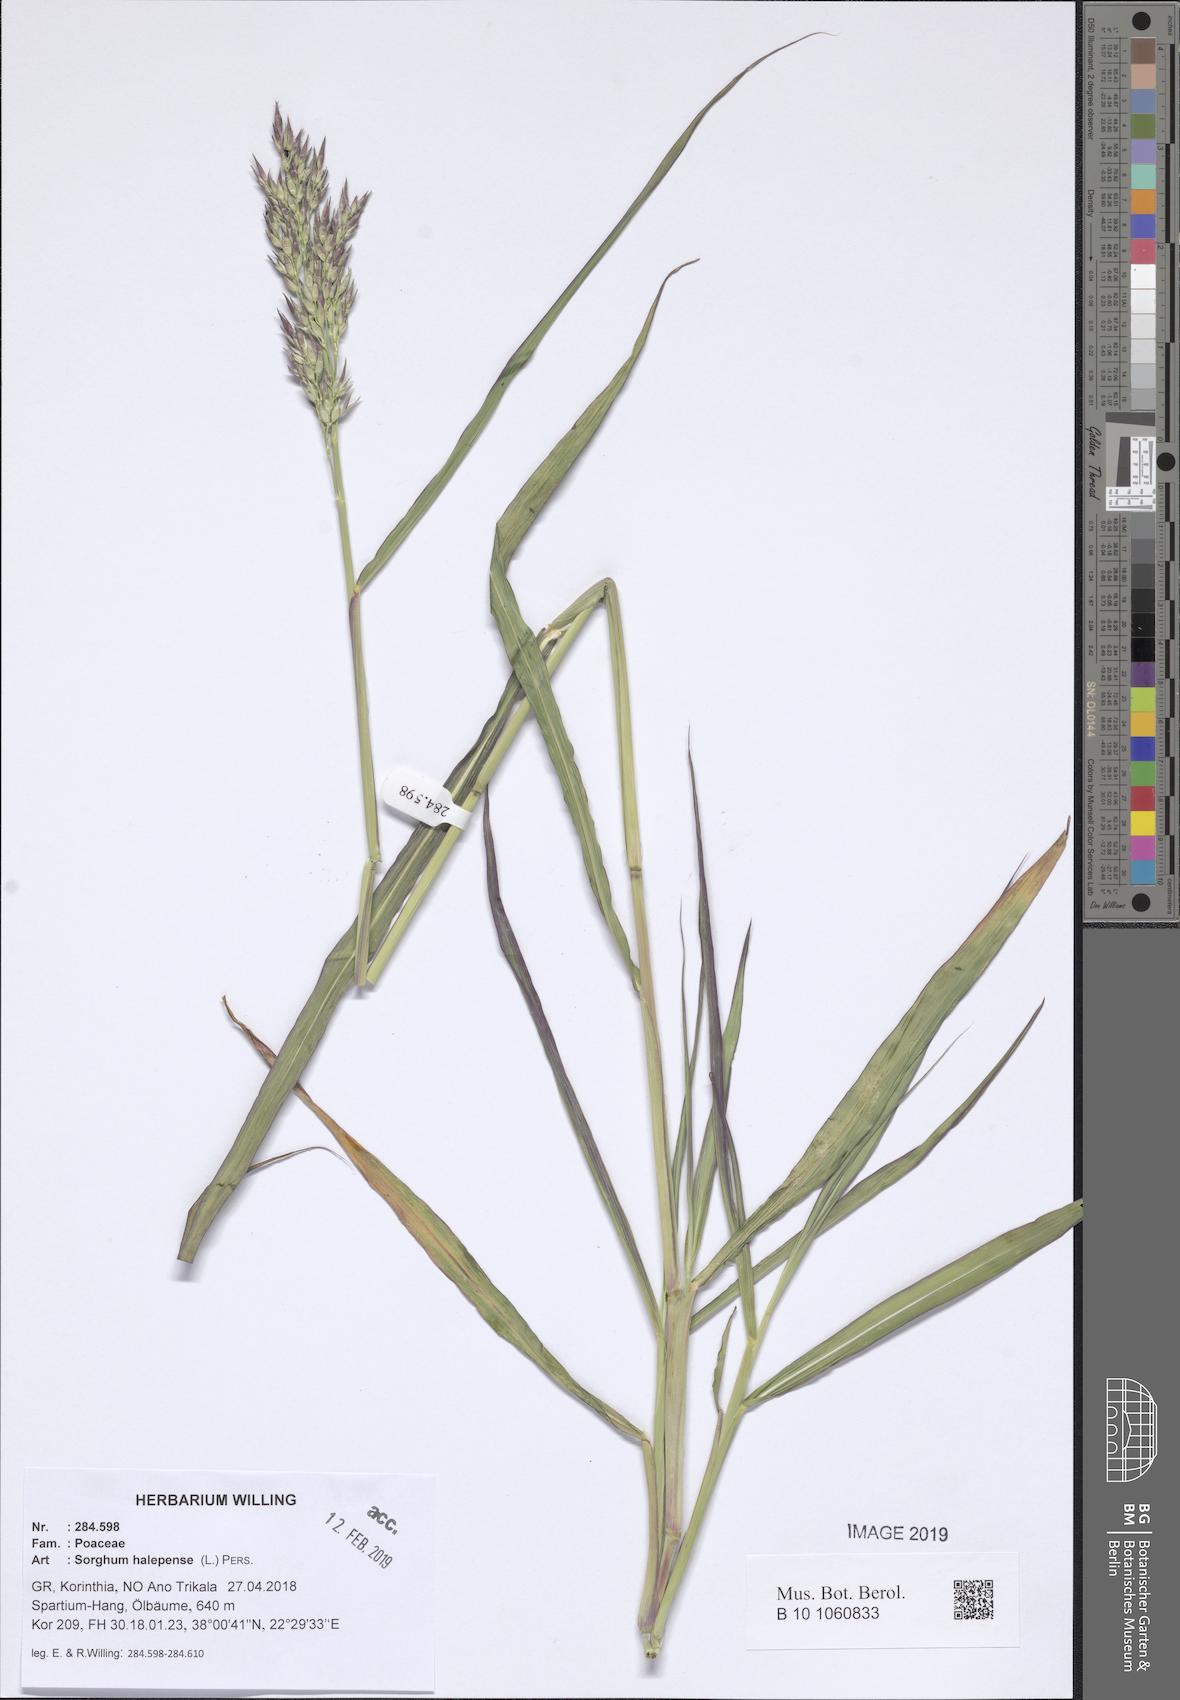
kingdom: Plantae
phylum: Tracheophyta
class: Liliopsida
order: Poales
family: Poaceae
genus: Sorghum
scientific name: Sorghum halepense
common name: Johnson-grass
